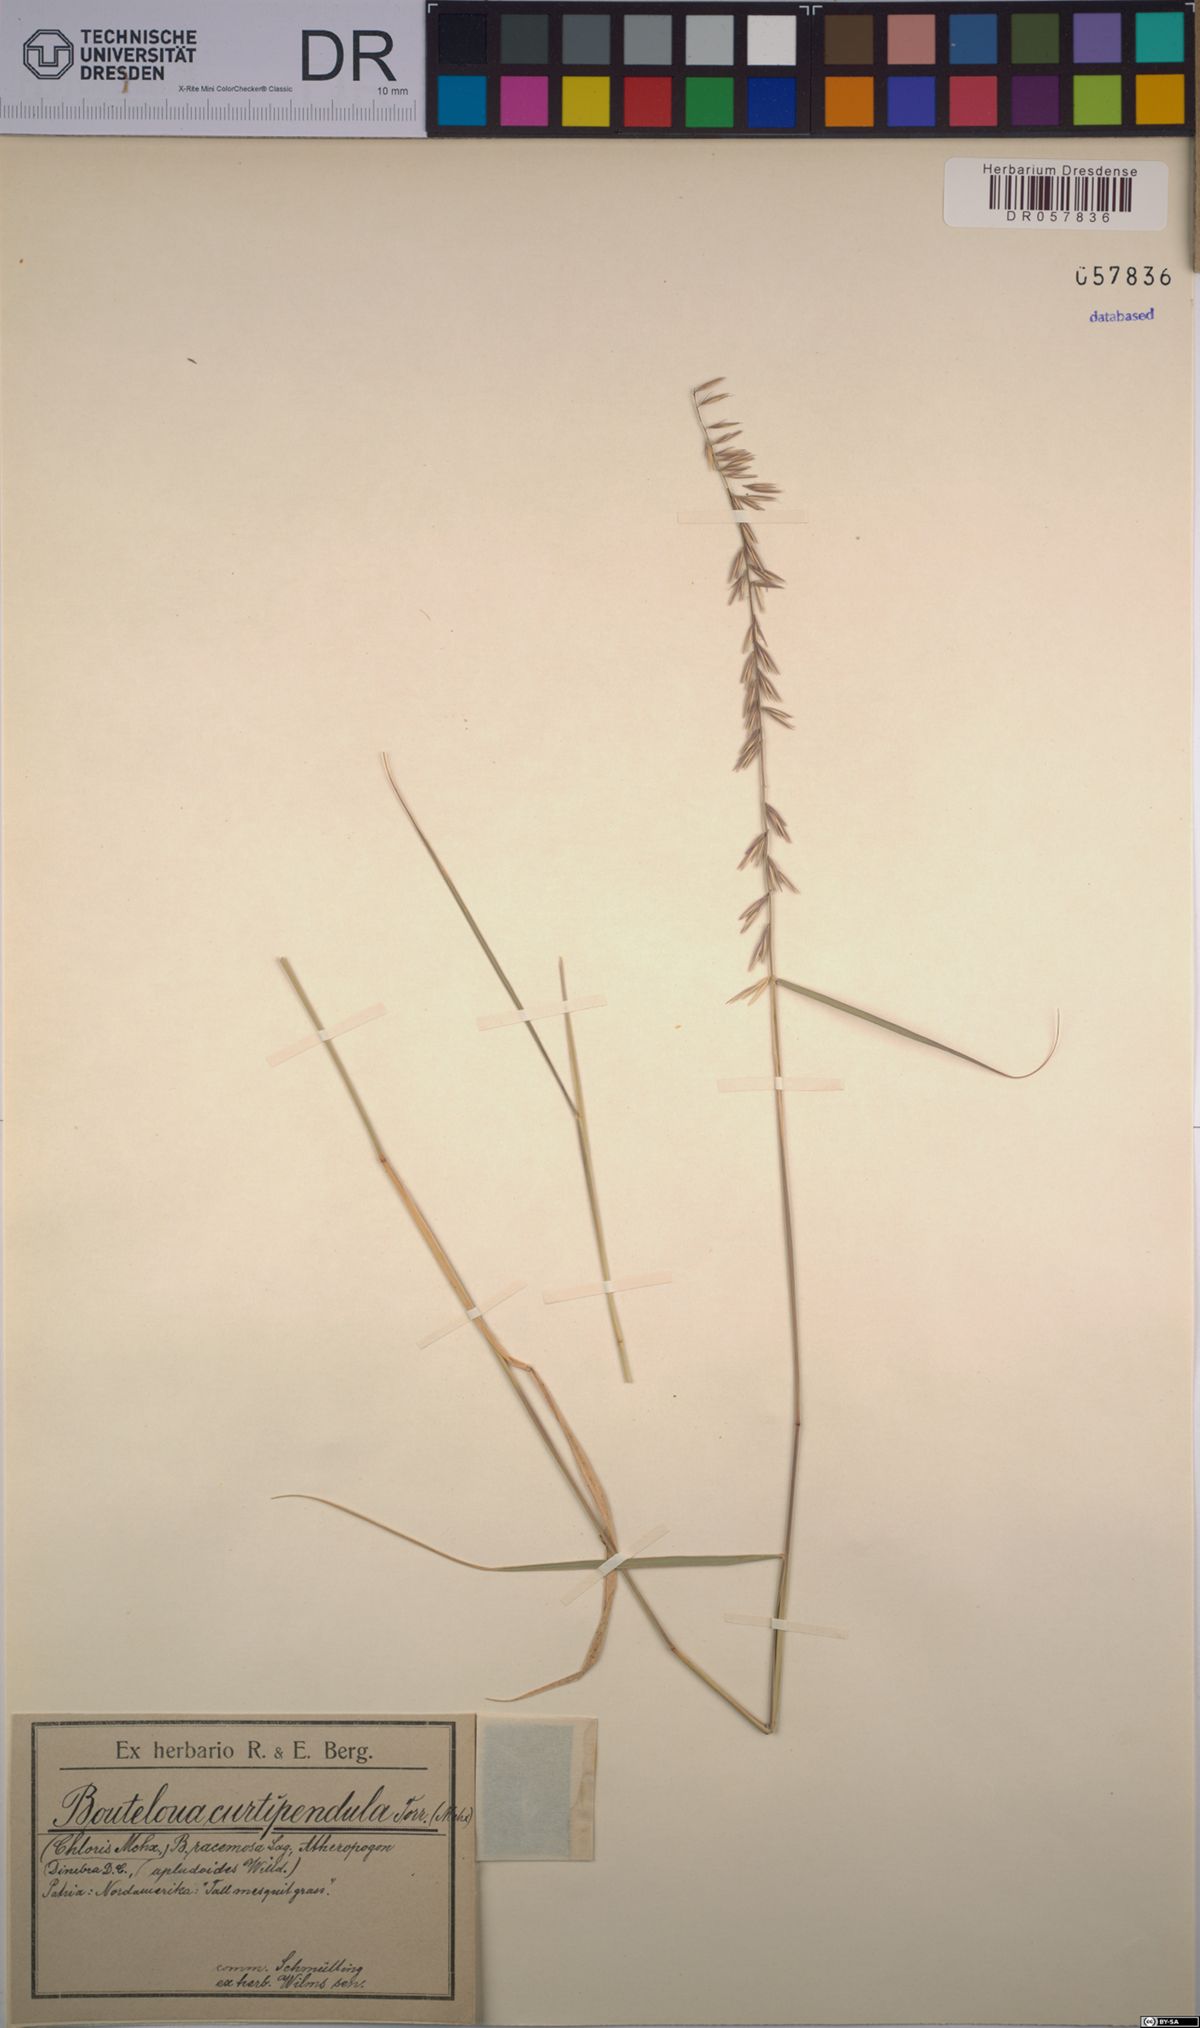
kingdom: Plantae
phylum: Tracheophyta
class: Liliopsida
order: Poales
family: Poaceae
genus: Bouteloua
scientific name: Bouteloua curtipendula
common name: Side-oats grama
